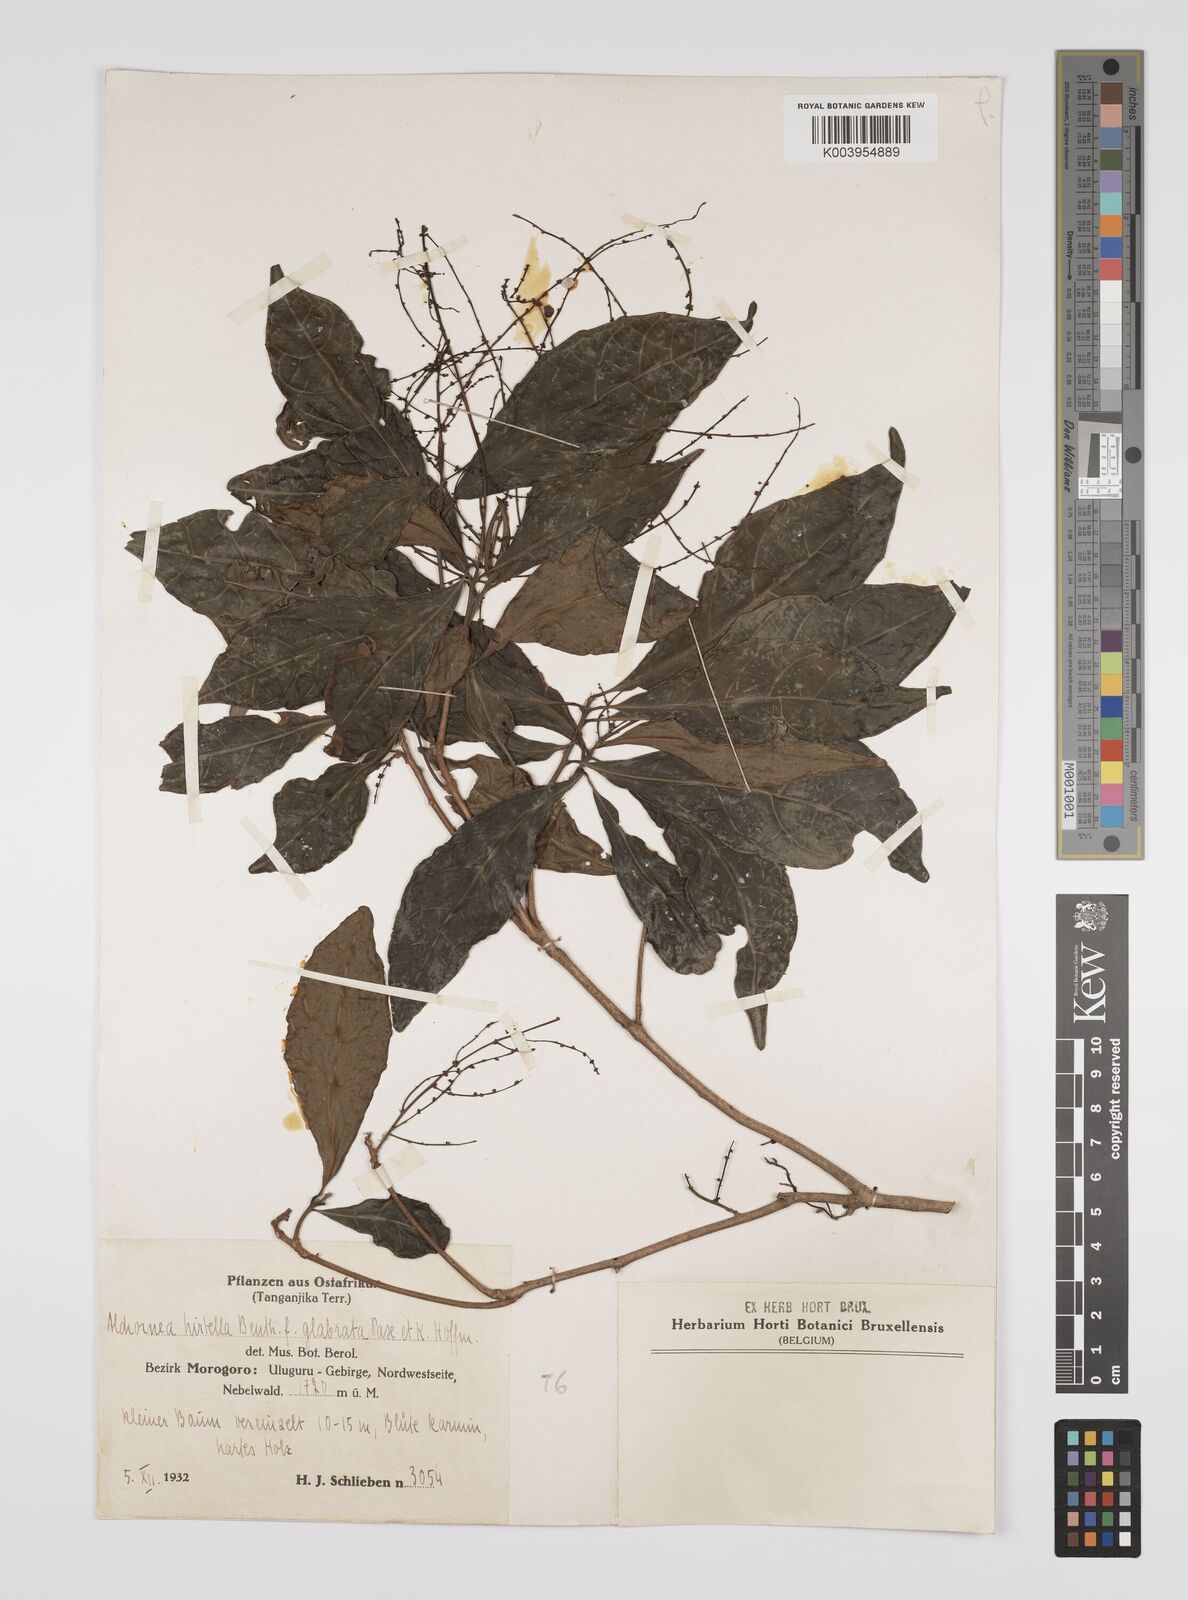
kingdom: Plantae
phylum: Tracheophyta
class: Magnoliopsida
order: Malpighiales
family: Euphorbiaceae
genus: Alchornea
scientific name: Alchornea hirtella
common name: Forest bead-string
